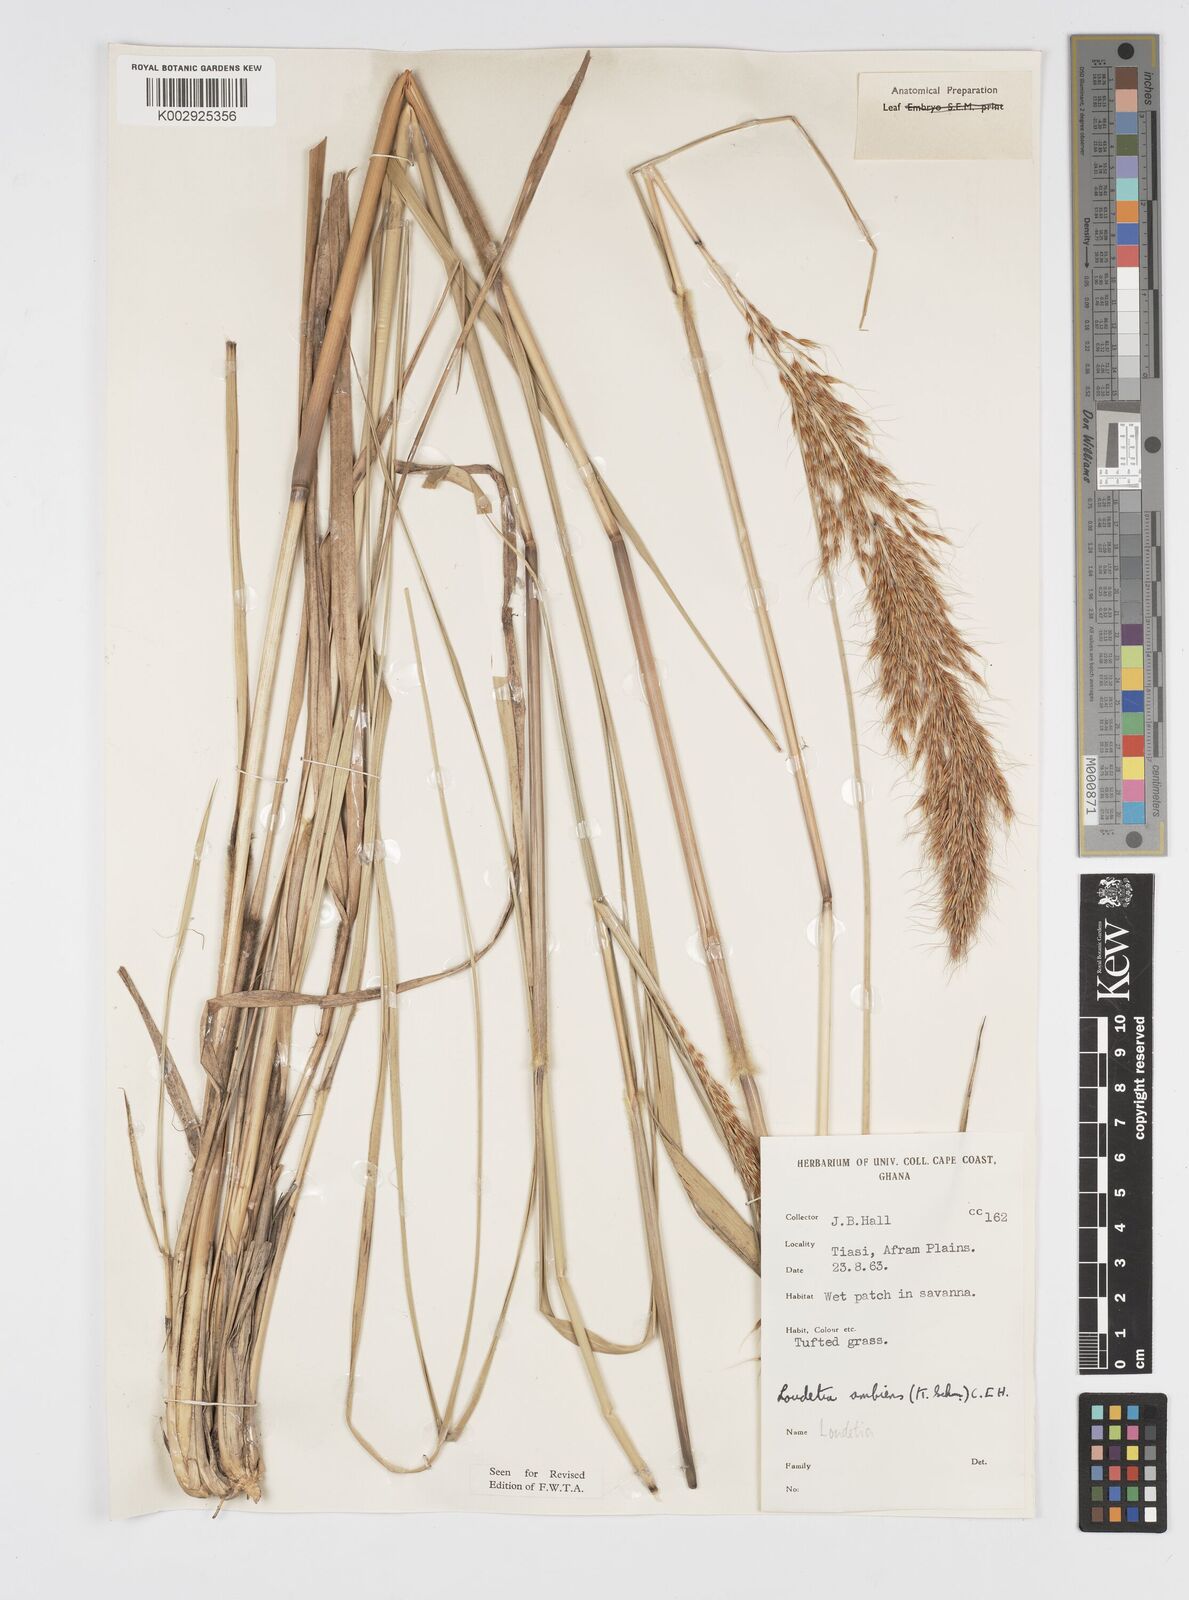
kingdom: Plantae
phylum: Tracheophyta
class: Liliopsida
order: Poales
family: Poaceae
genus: Loudetiopsis
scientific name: Loudetiopsis ambiens
